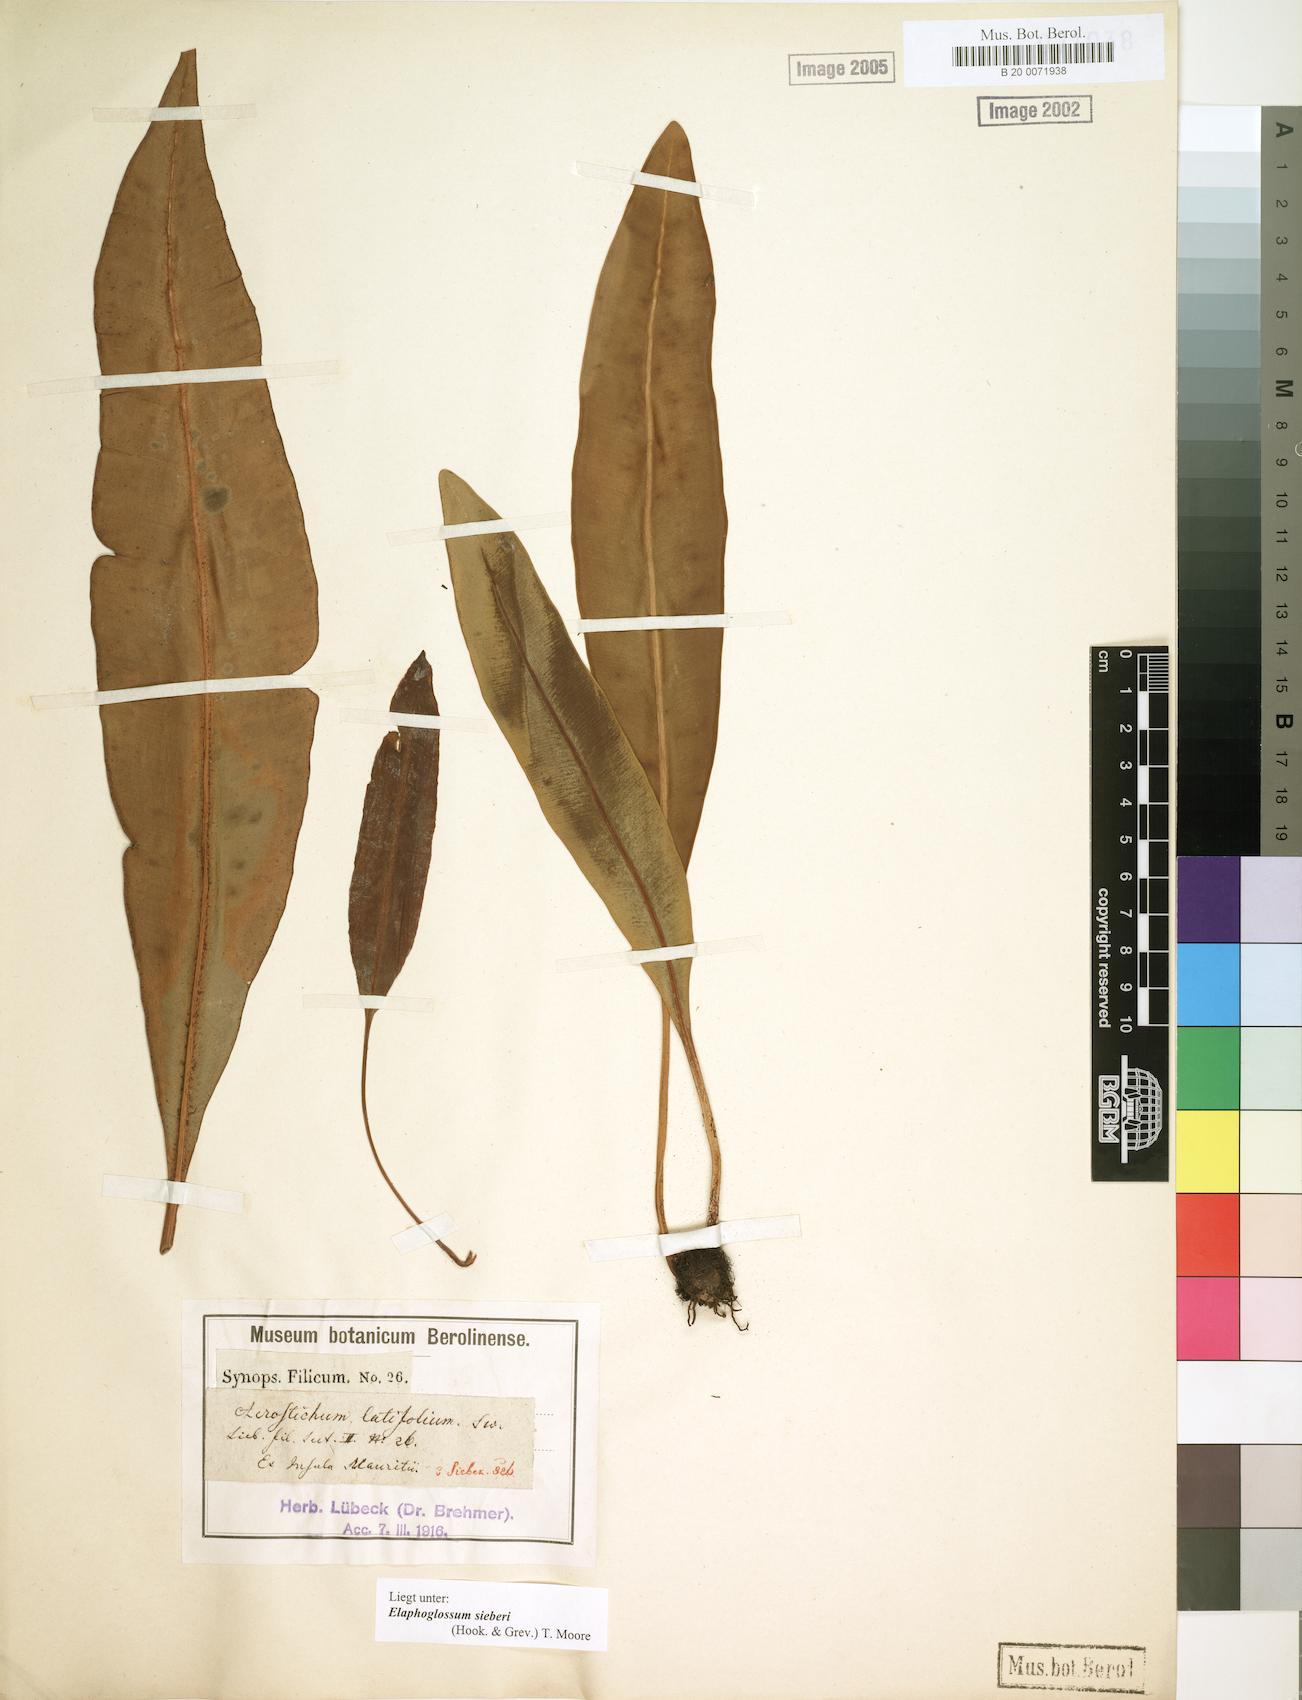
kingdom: Plantae
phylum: Tracheophyta
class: Polypodiopsida
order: Polypodiales
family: Dryopteridaceae
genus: Elaphoglossum
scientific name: Elaphoglossum sieberi
